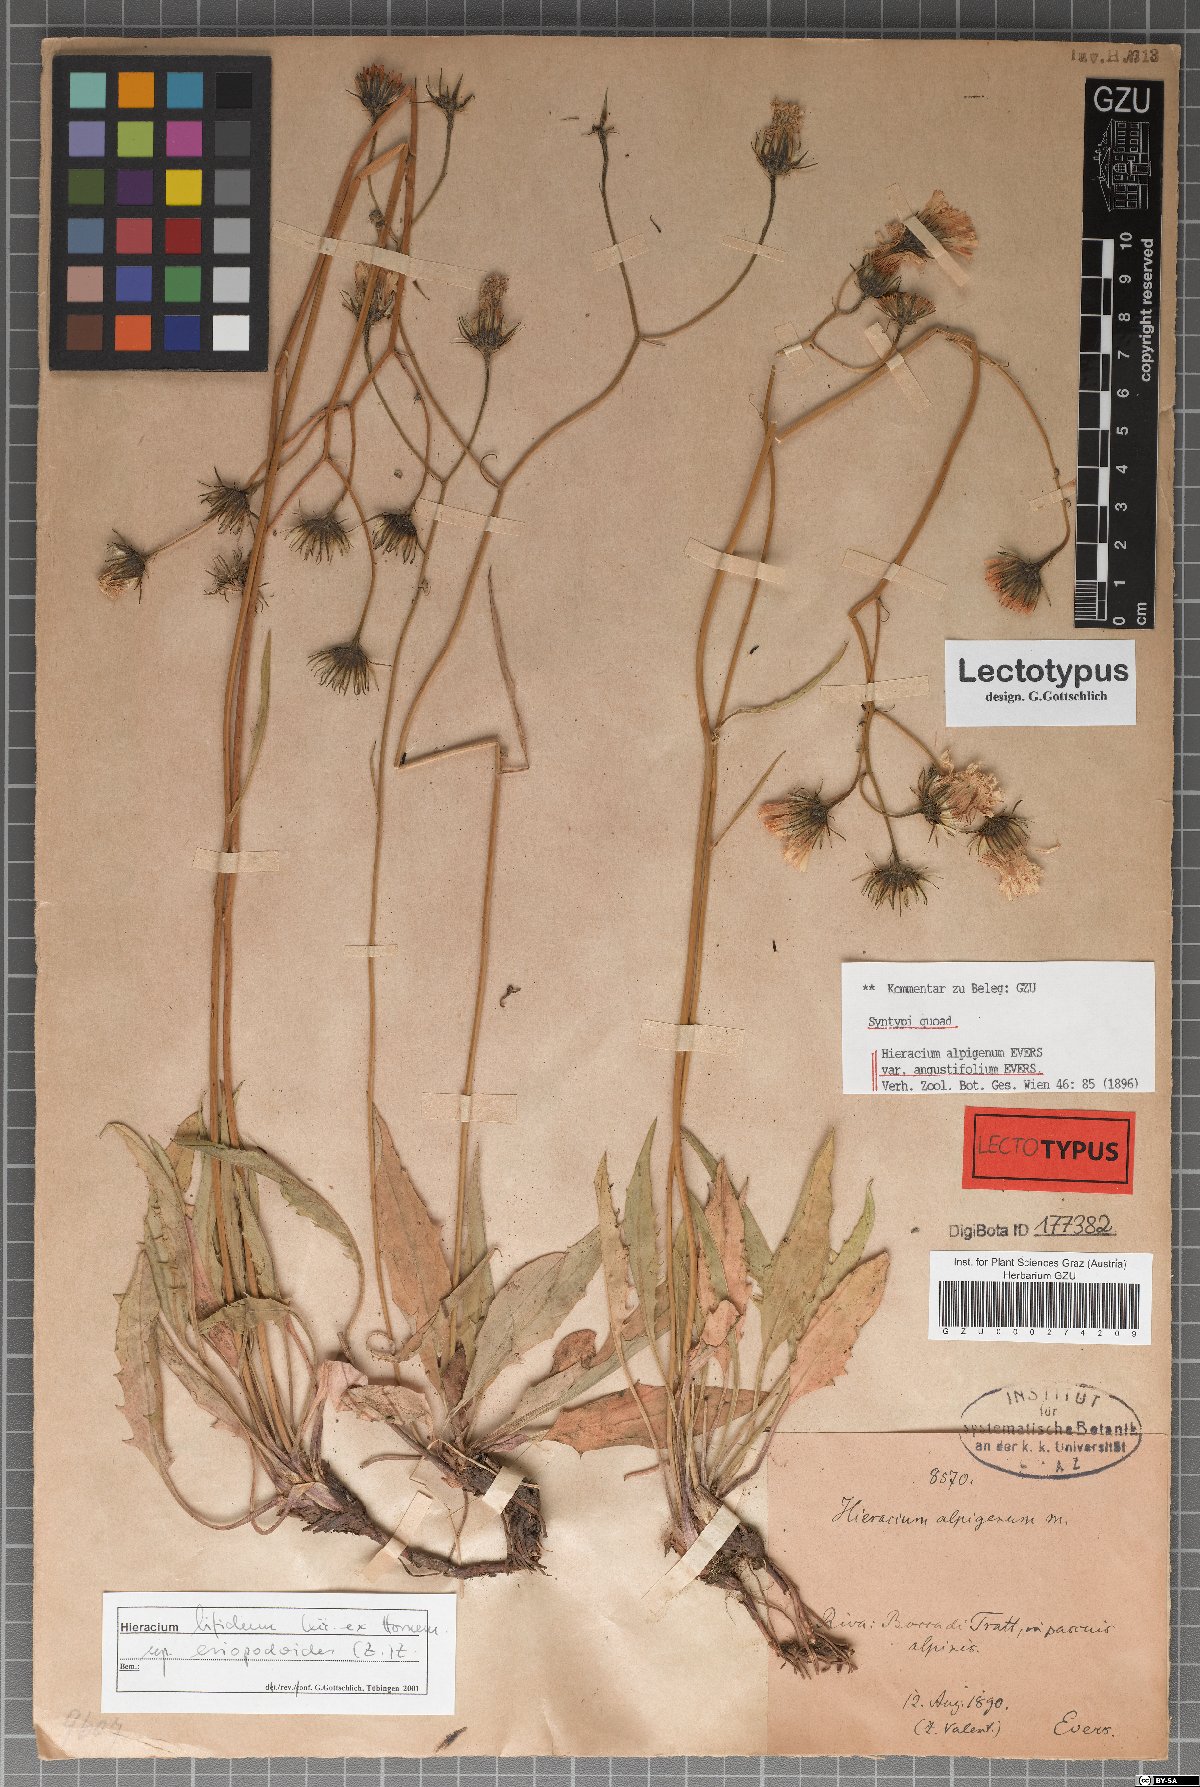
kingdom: Plantae
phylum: Tracheophyta
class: Magnoliopsida
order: Asterales
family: Asteraceae
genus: Hieracium
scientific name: Hieracium alpigena
